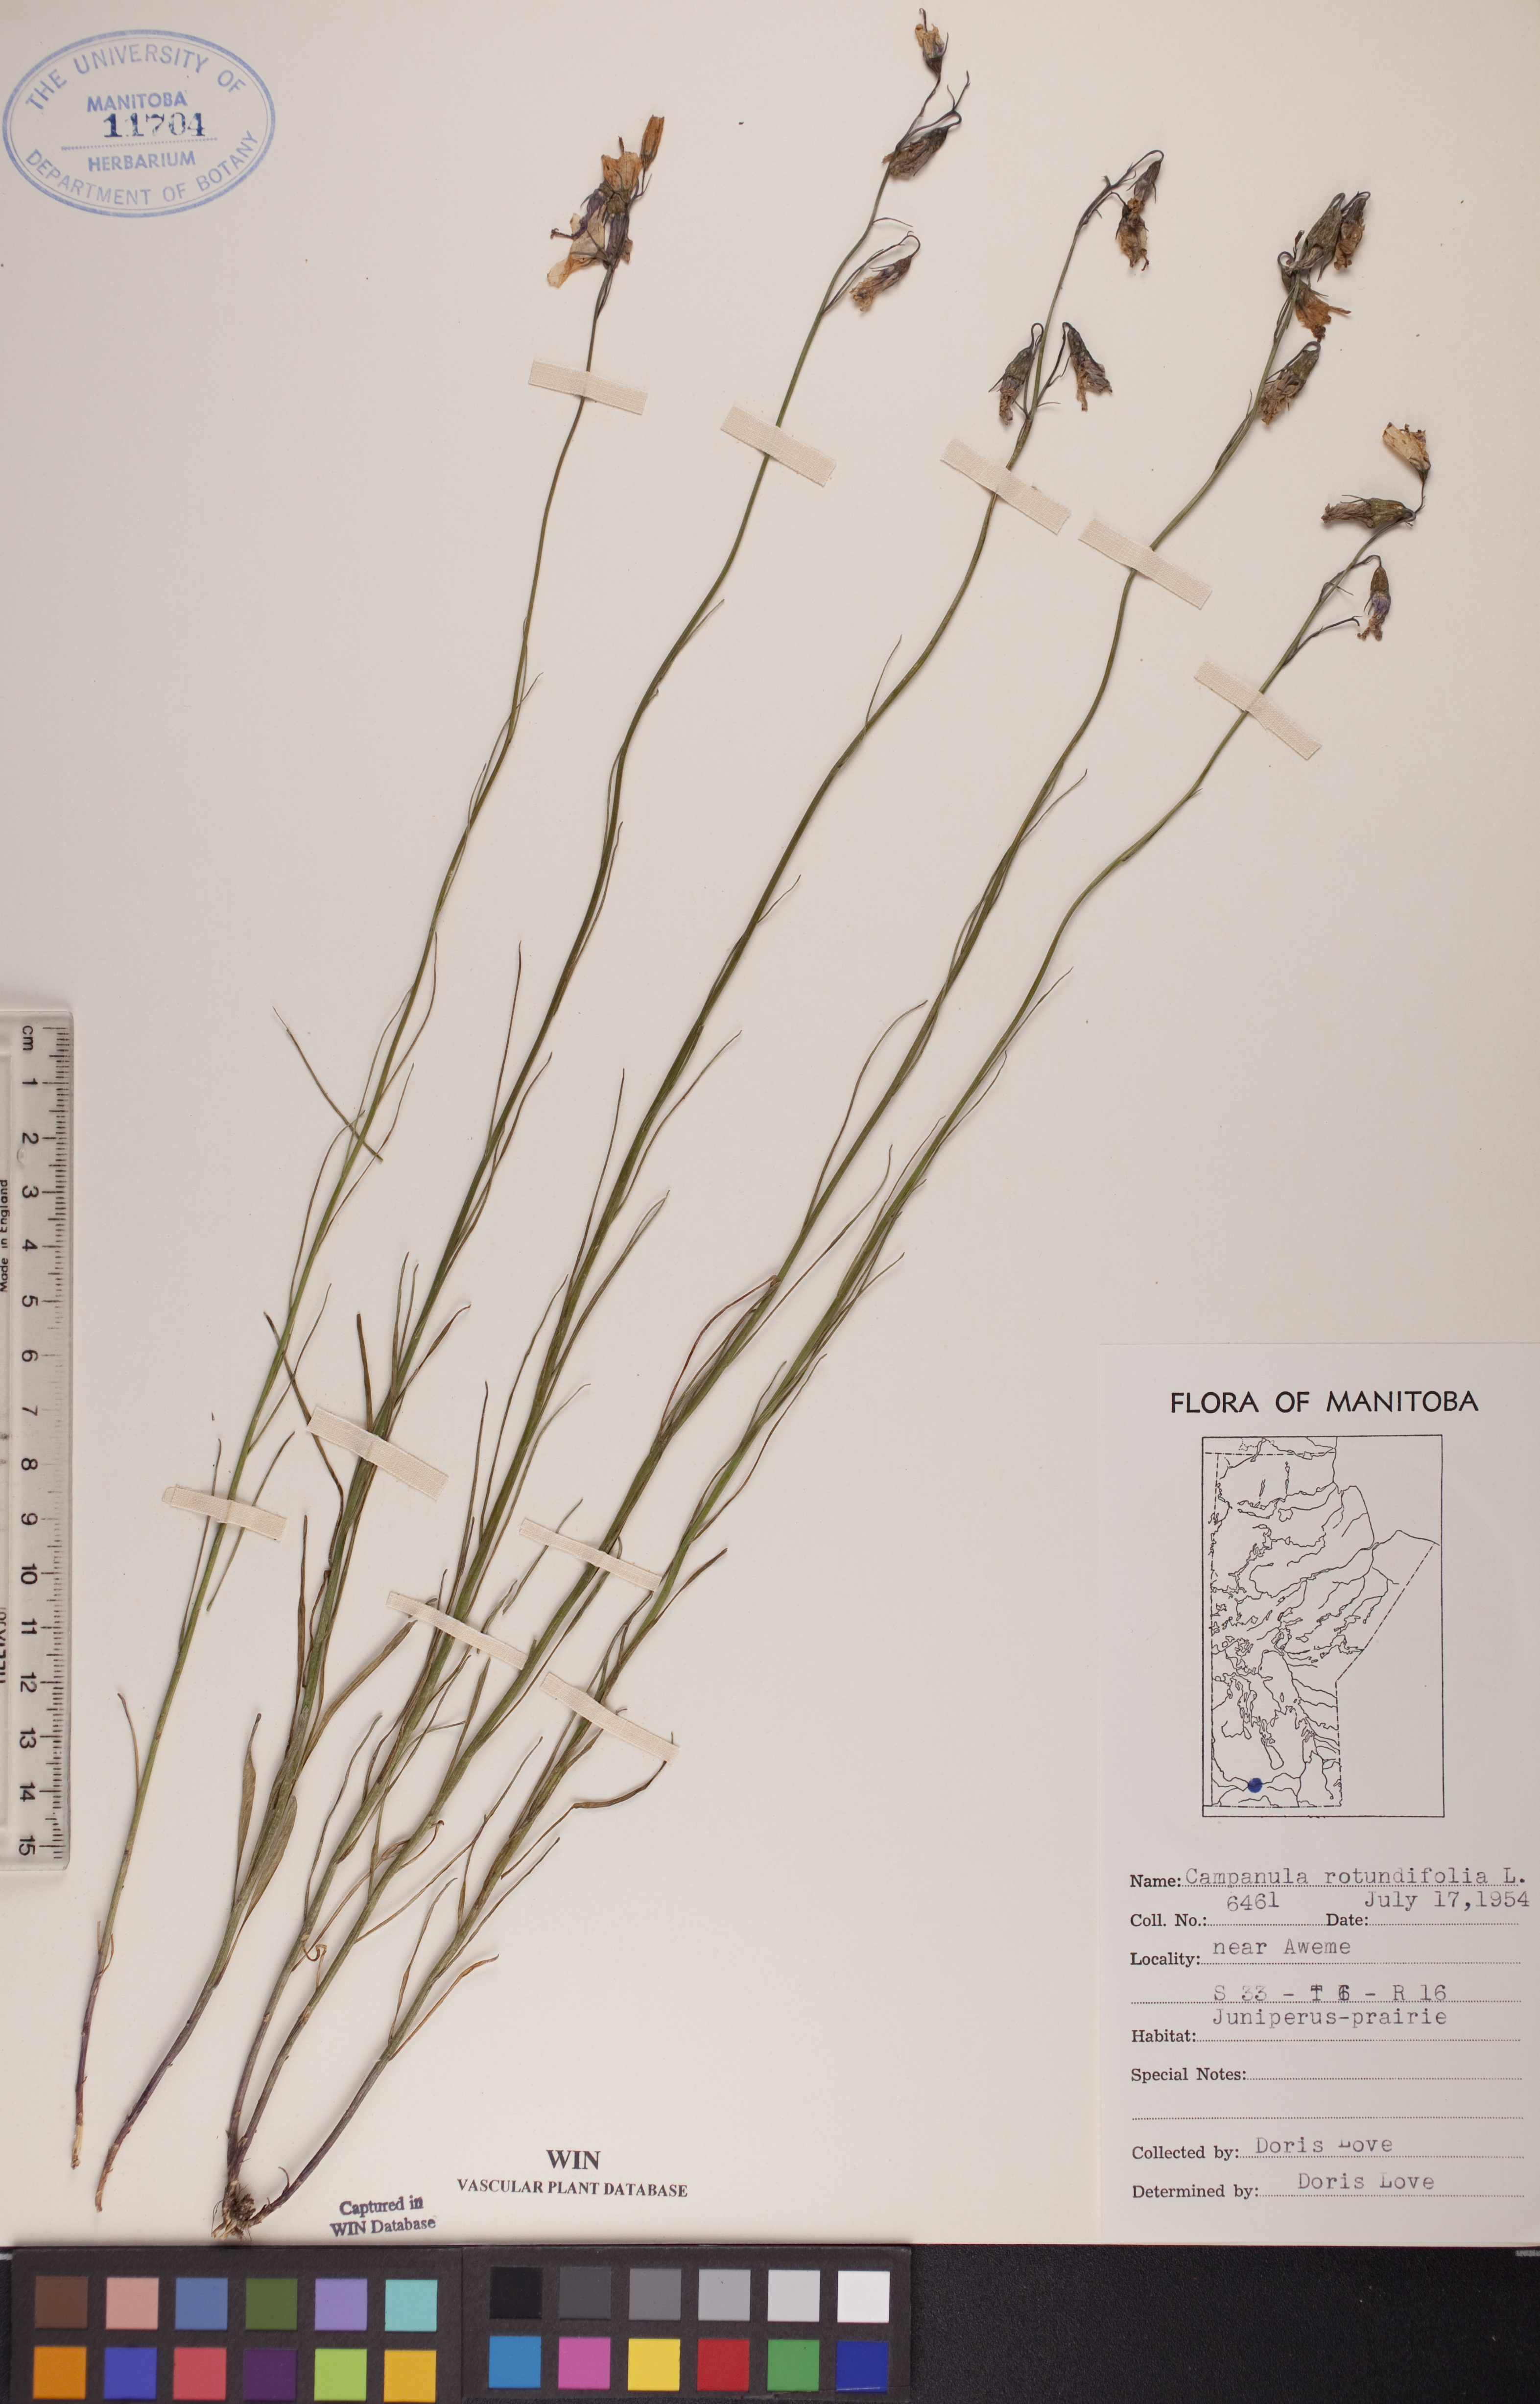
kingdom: Plantae
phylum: Tracheophyta
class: Magnoliopsida
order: Asterales
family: Campanulaceae
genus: Campanula
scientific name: Campanula rotundifolia
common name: Harebell
